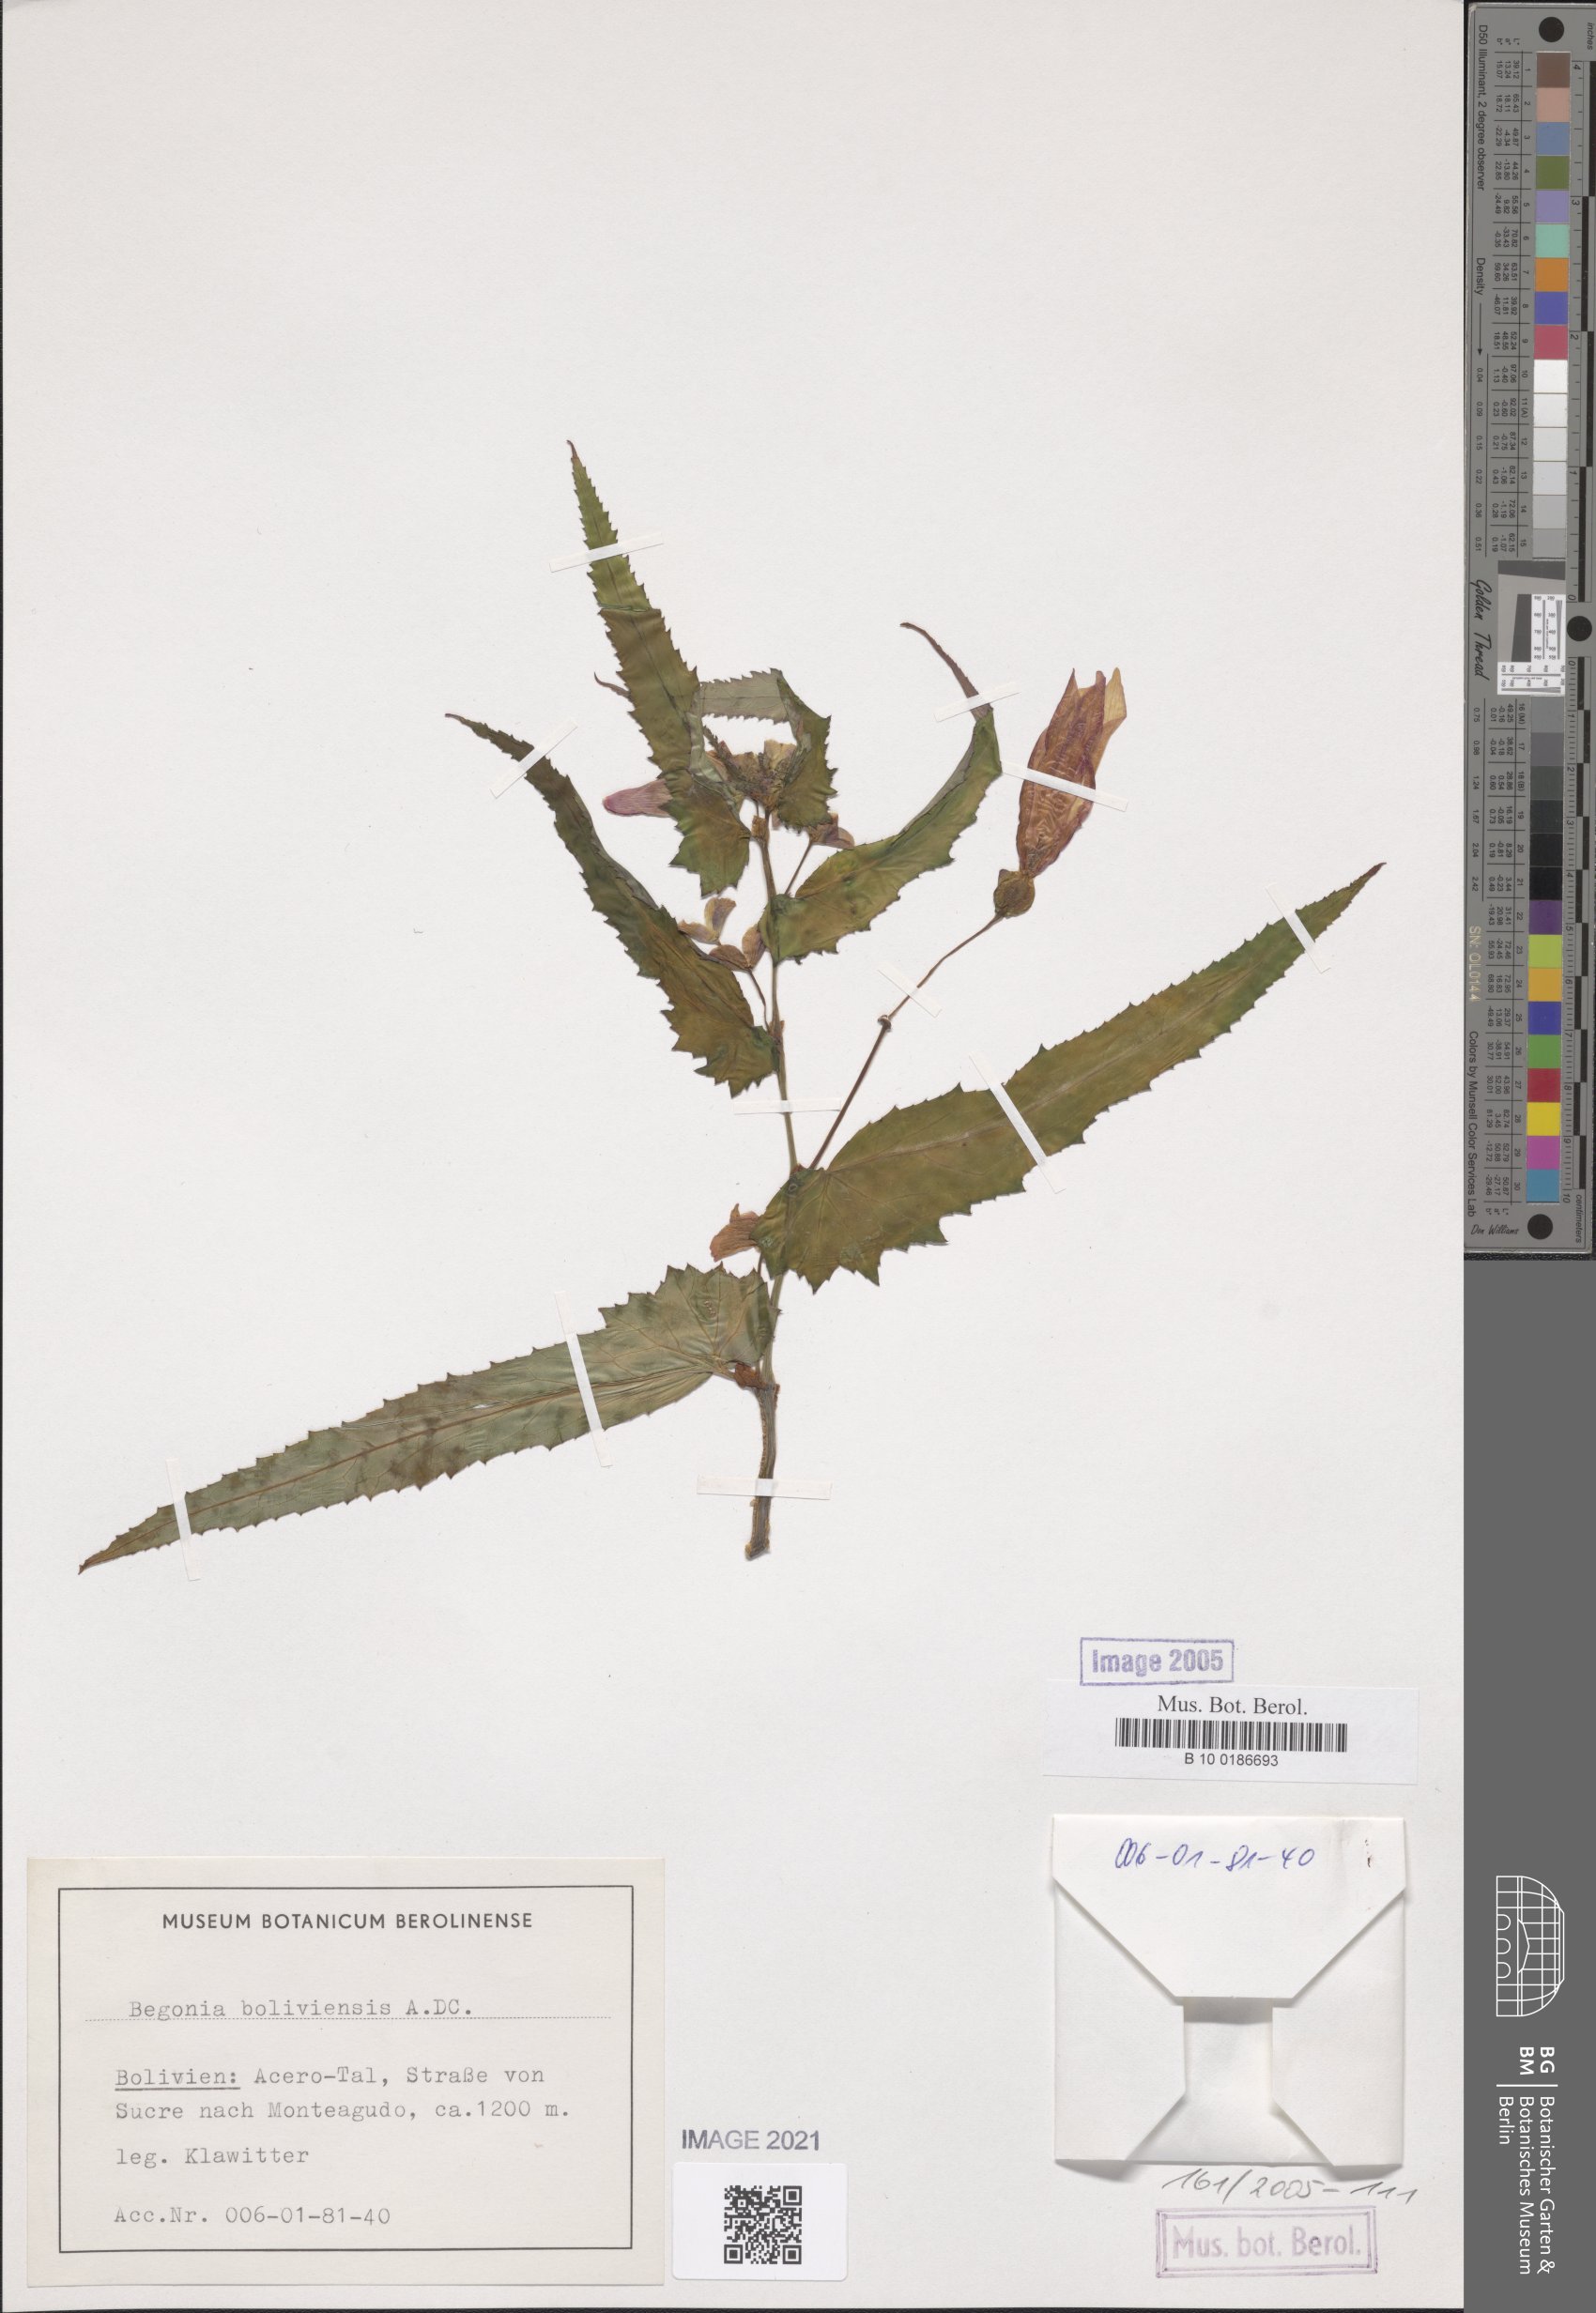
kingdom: Plantae
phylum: Tracheophyta
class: Magnoliopsida
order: Cucurbitales
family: Begoniaceae
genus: Begonia
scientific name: Begonia boliviensis
